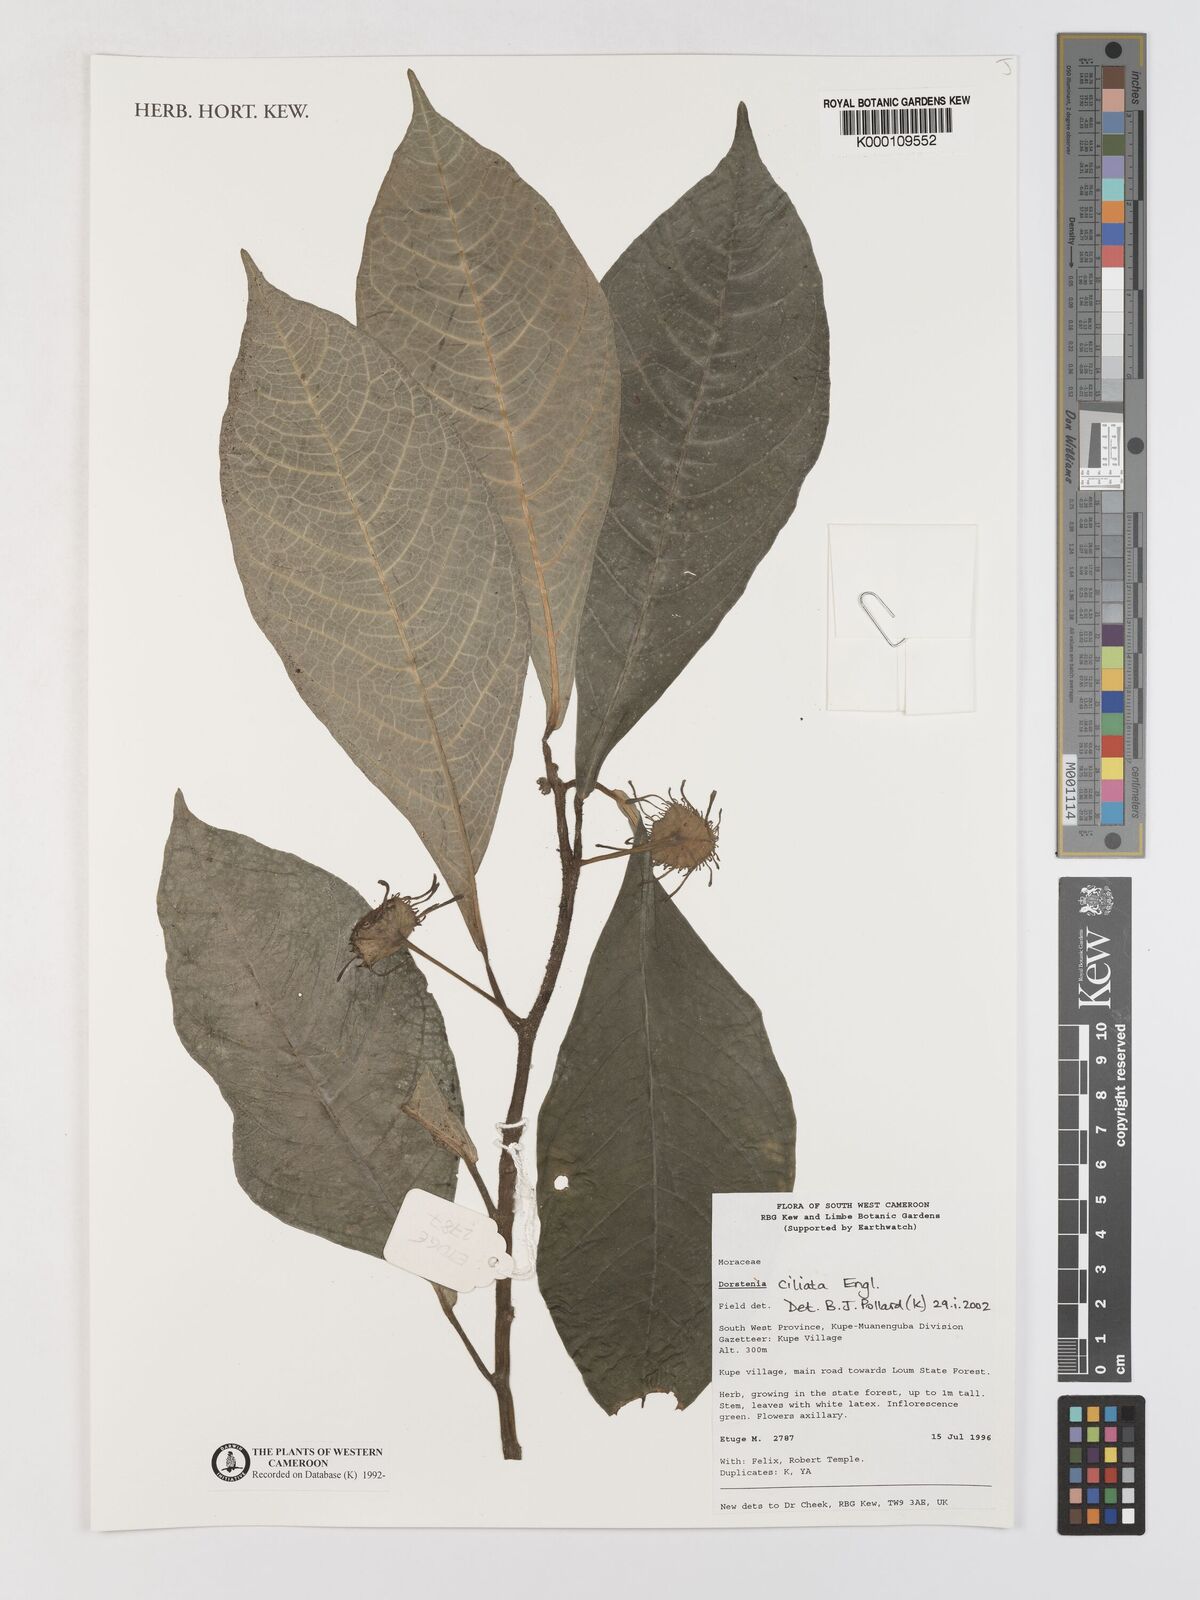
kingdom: Plantae
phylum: Tracheophyta
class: Magnoliopsida
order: Rosales
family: Moraceae
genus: Dorstenia
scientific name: Dorstenia ciliata
